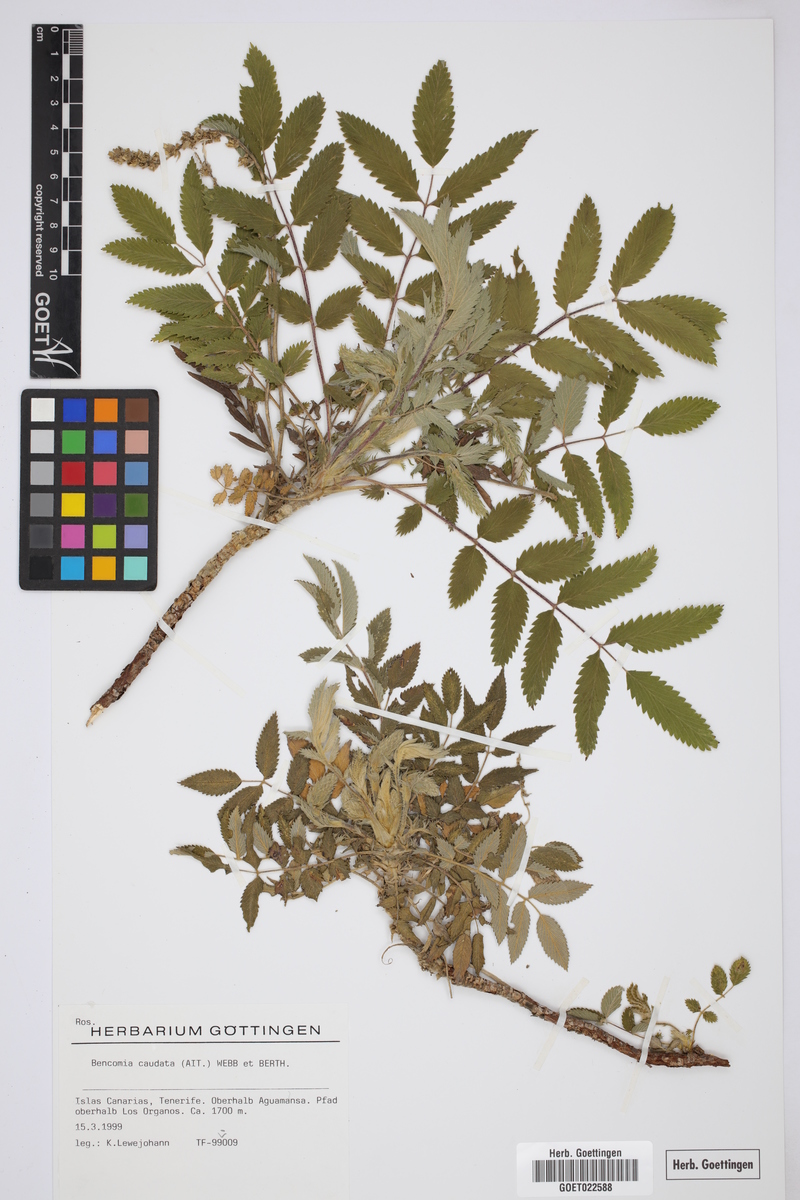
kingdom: Plantae
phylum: Tracheophyta
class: Magnoliopsida
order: Rosales
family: Rosaceae
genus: Bencomia
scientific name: Bencomia caudata
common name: Bencomia
